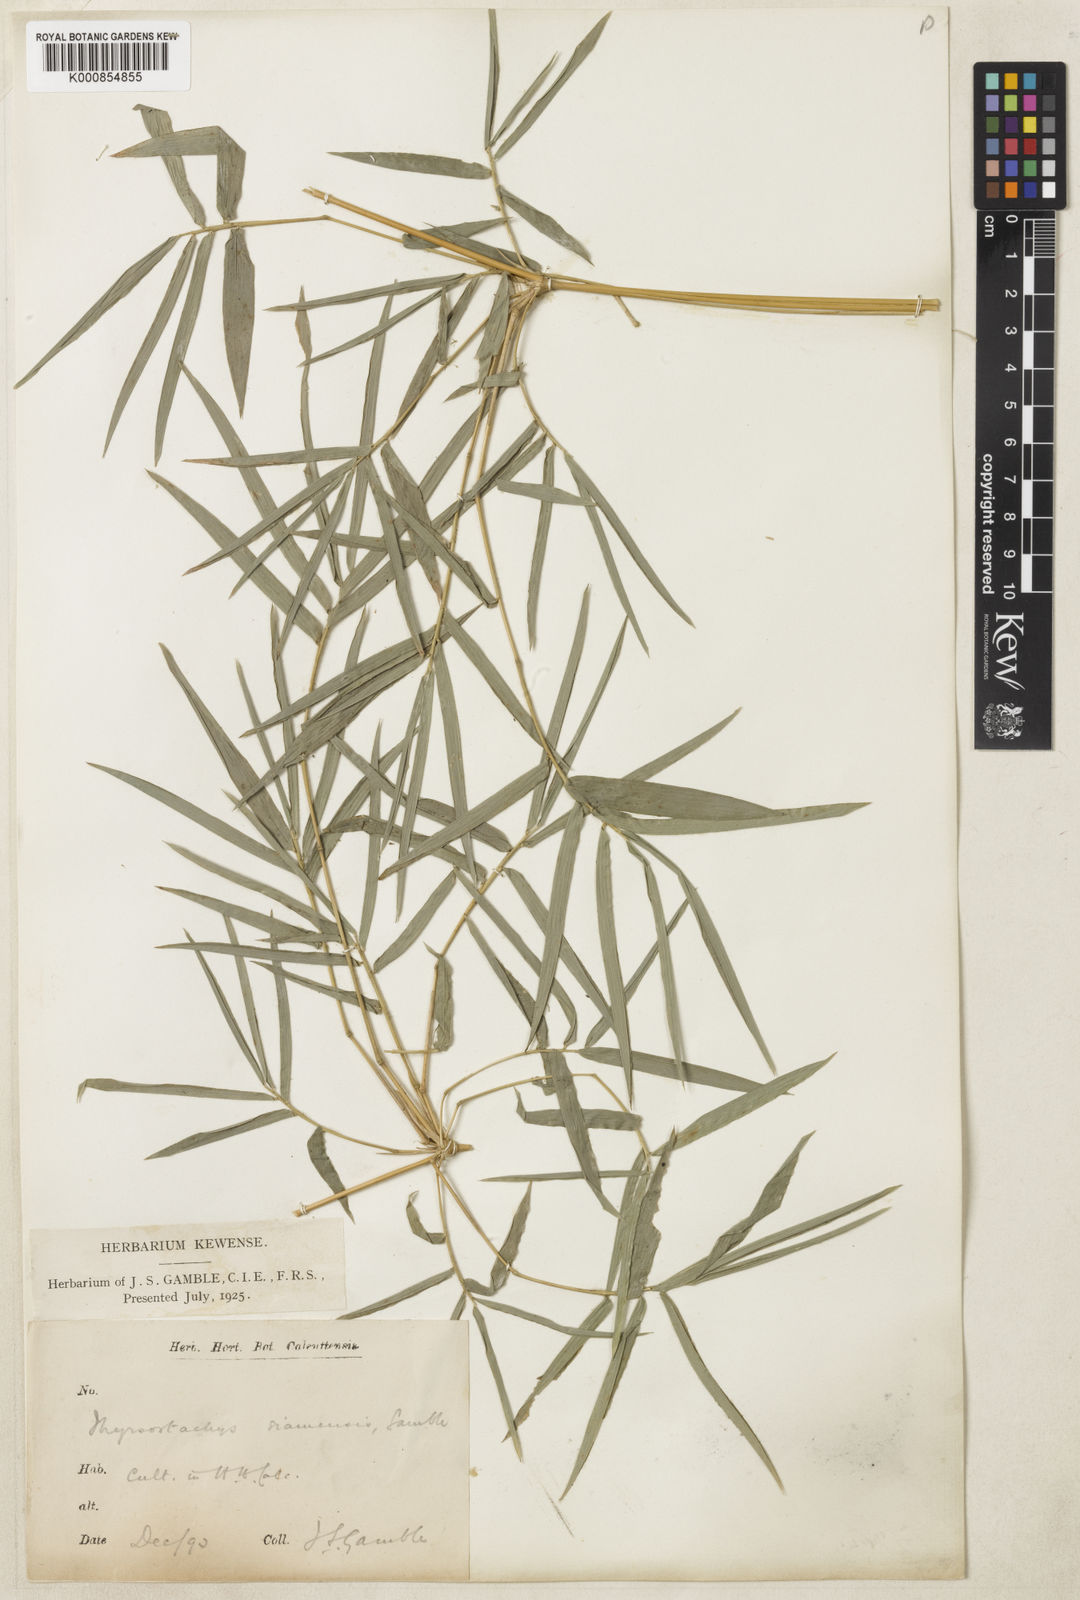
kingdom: Plantae
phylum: Tracheophyta
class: Liliopsida
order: Poales
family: Poaceae
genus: Thyrsostachys
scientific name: Thyrsostachys siamensis
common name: Thailand bamboo
